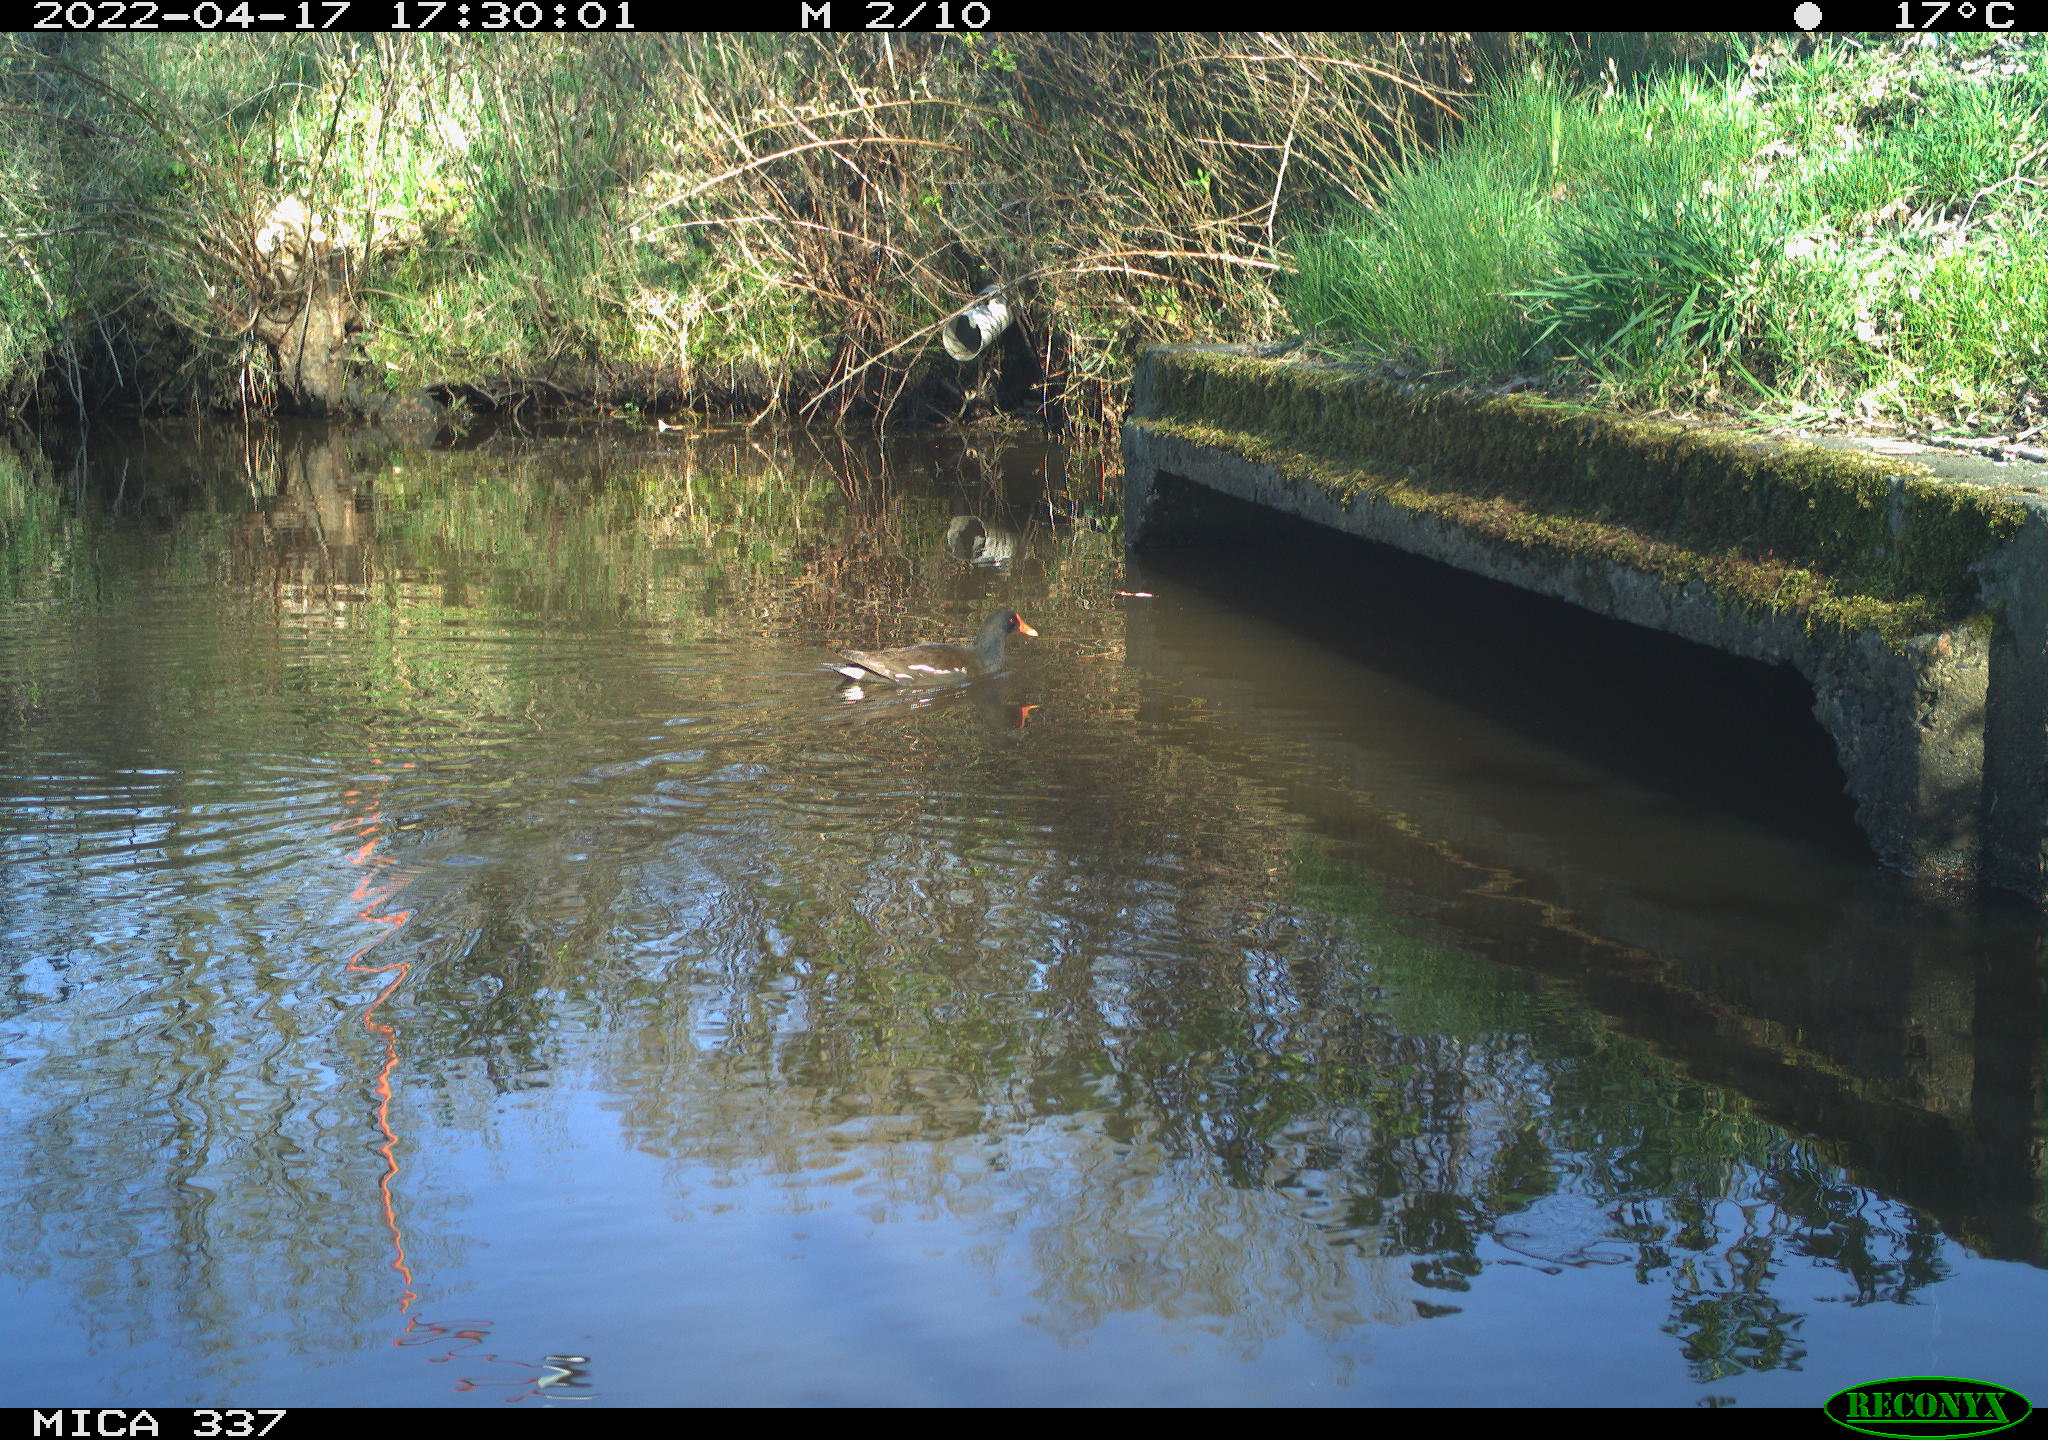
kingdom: Animalia
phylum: Chordata
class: Aves
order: Gruiformes
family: Rallidae
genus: Gallinula
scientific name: Gallinula chloropus
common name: Common moorhen
